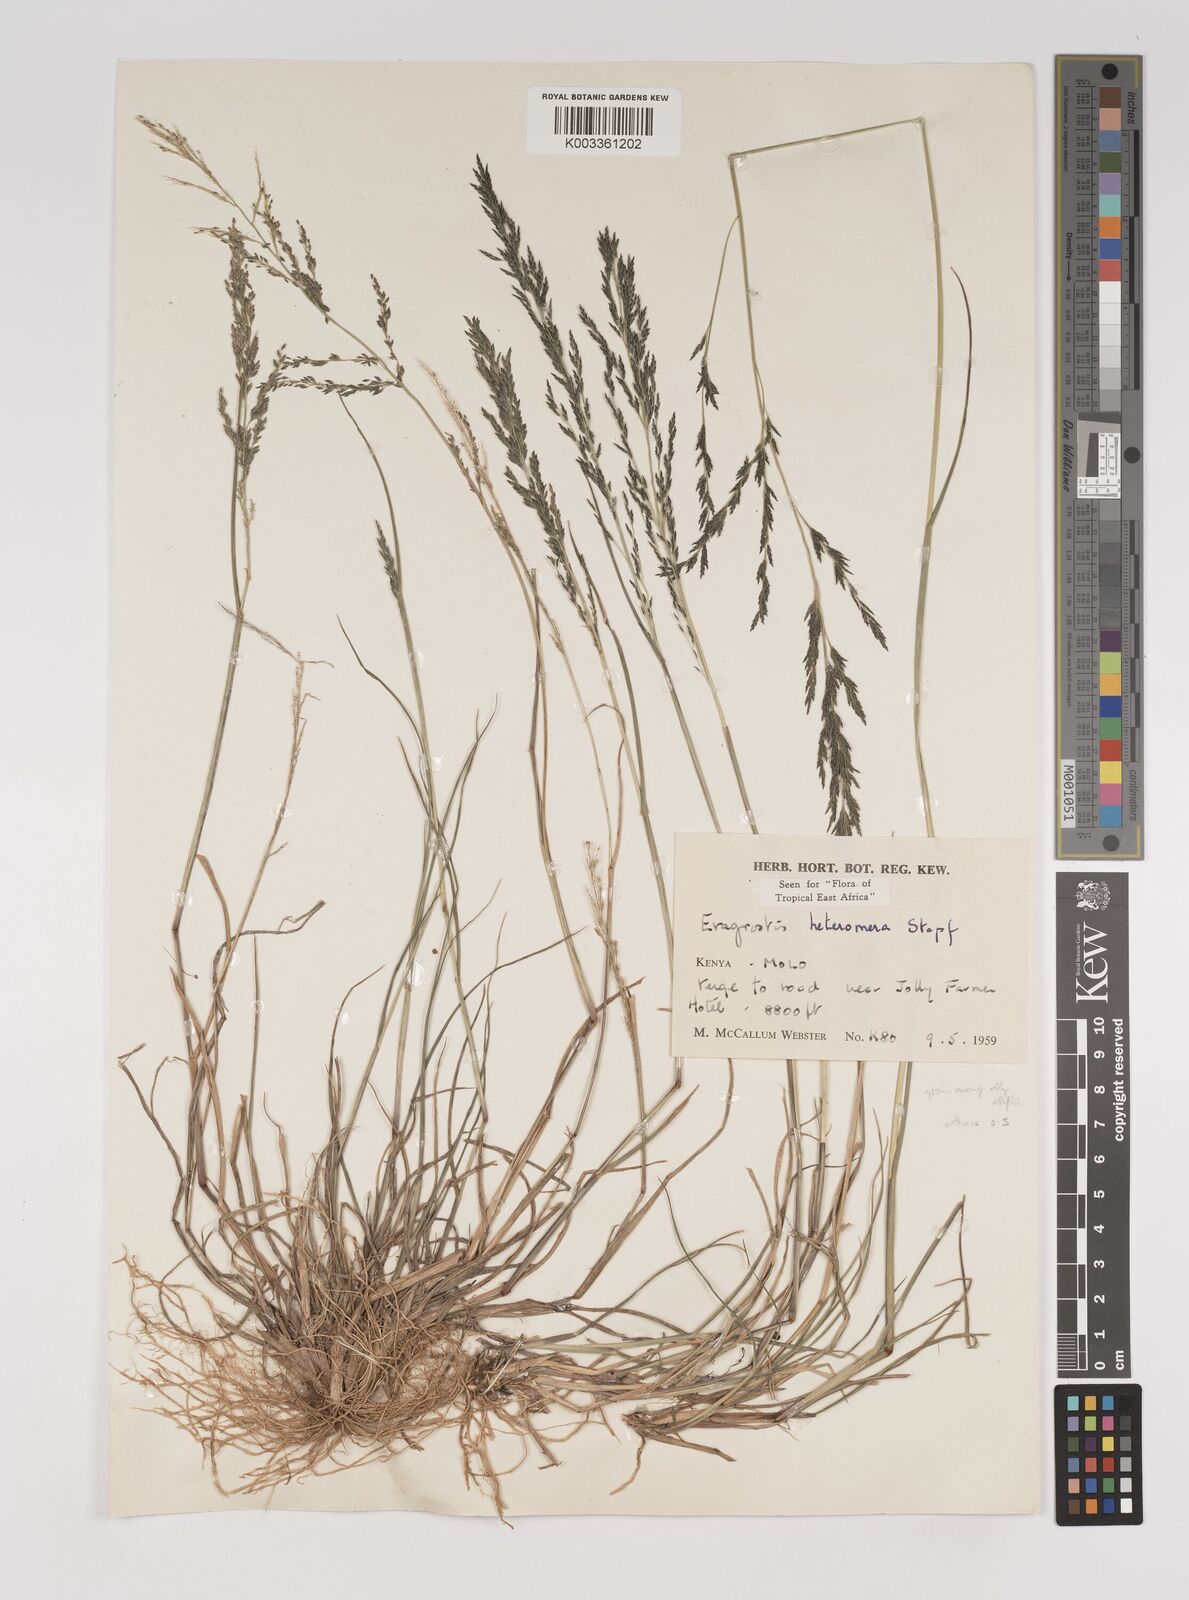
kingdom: Plantae
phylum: Tracheophyta
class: Liliopsida
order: Poales
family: Poaceae
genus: Eragrostis
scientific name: Eragrostis heteromera
